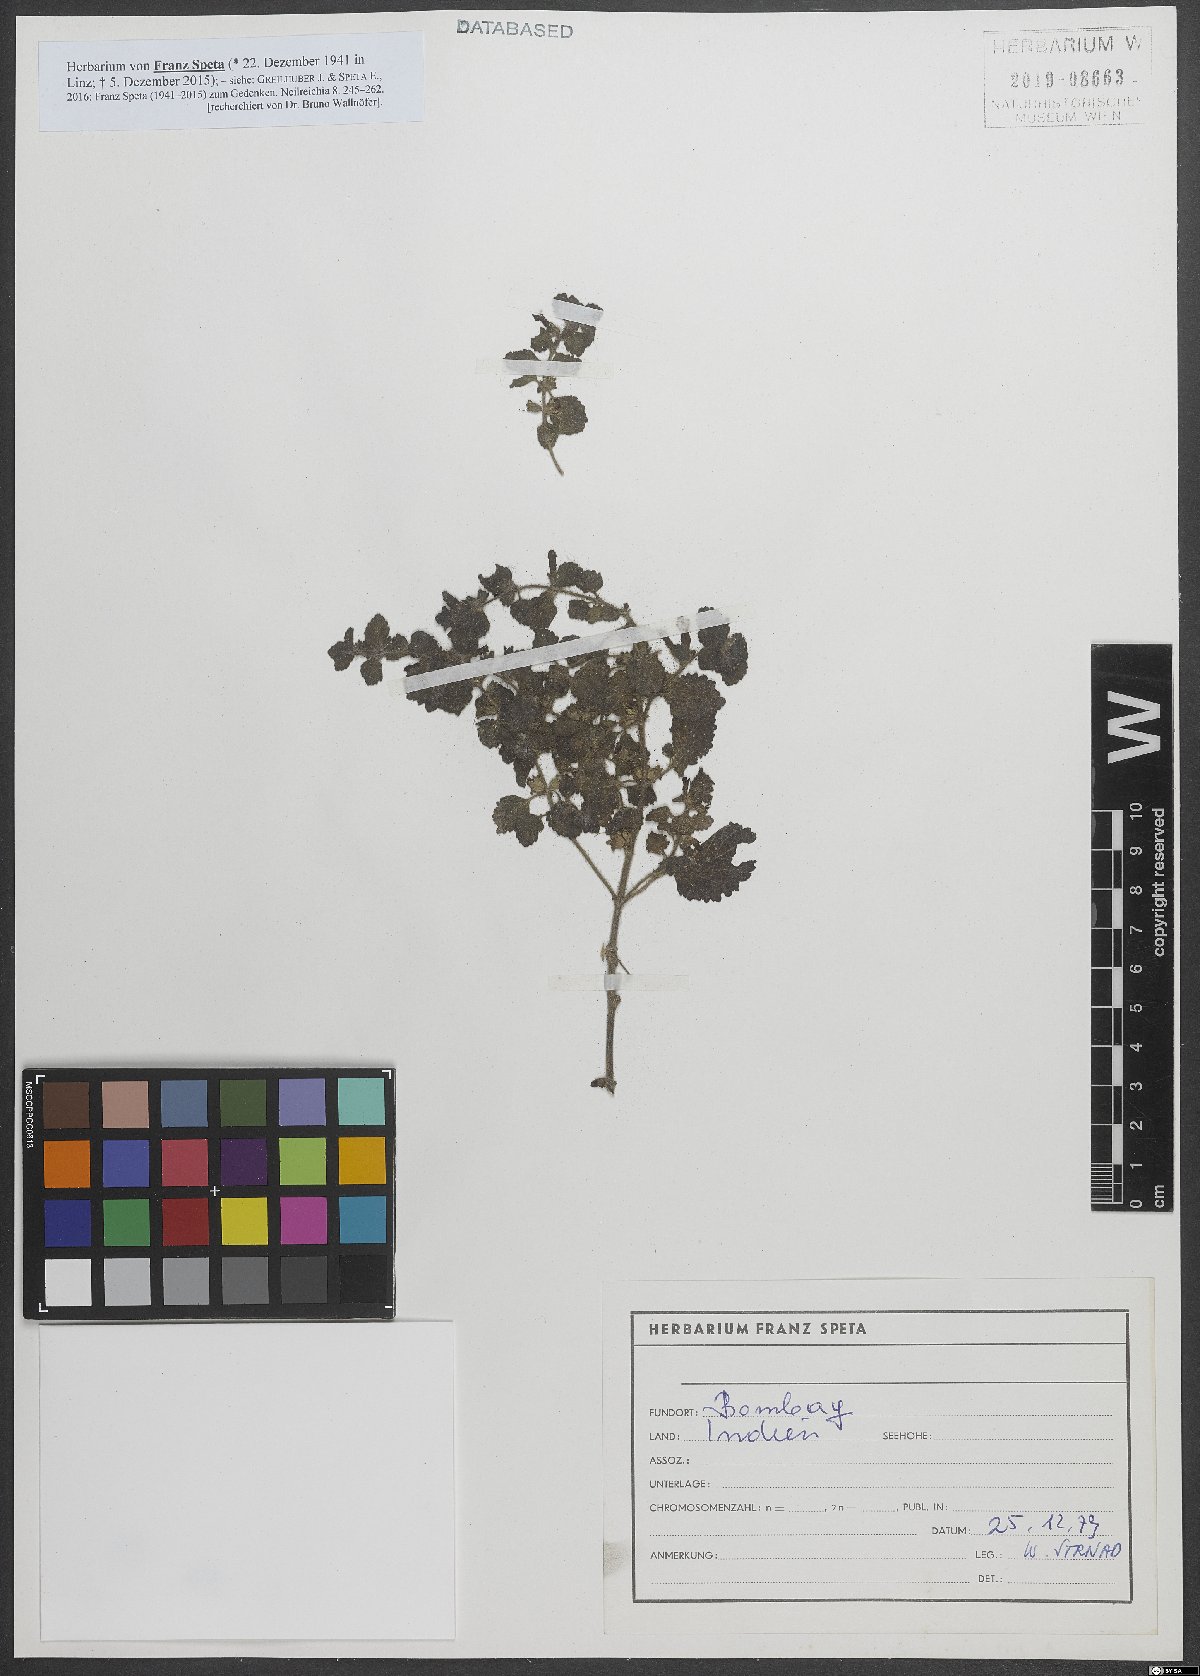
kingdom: Plantae
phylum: Tracheophyta
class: Magnoliopsida
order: Lamiales
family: Scrophulariaceae
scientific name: Scrophulariaceae
